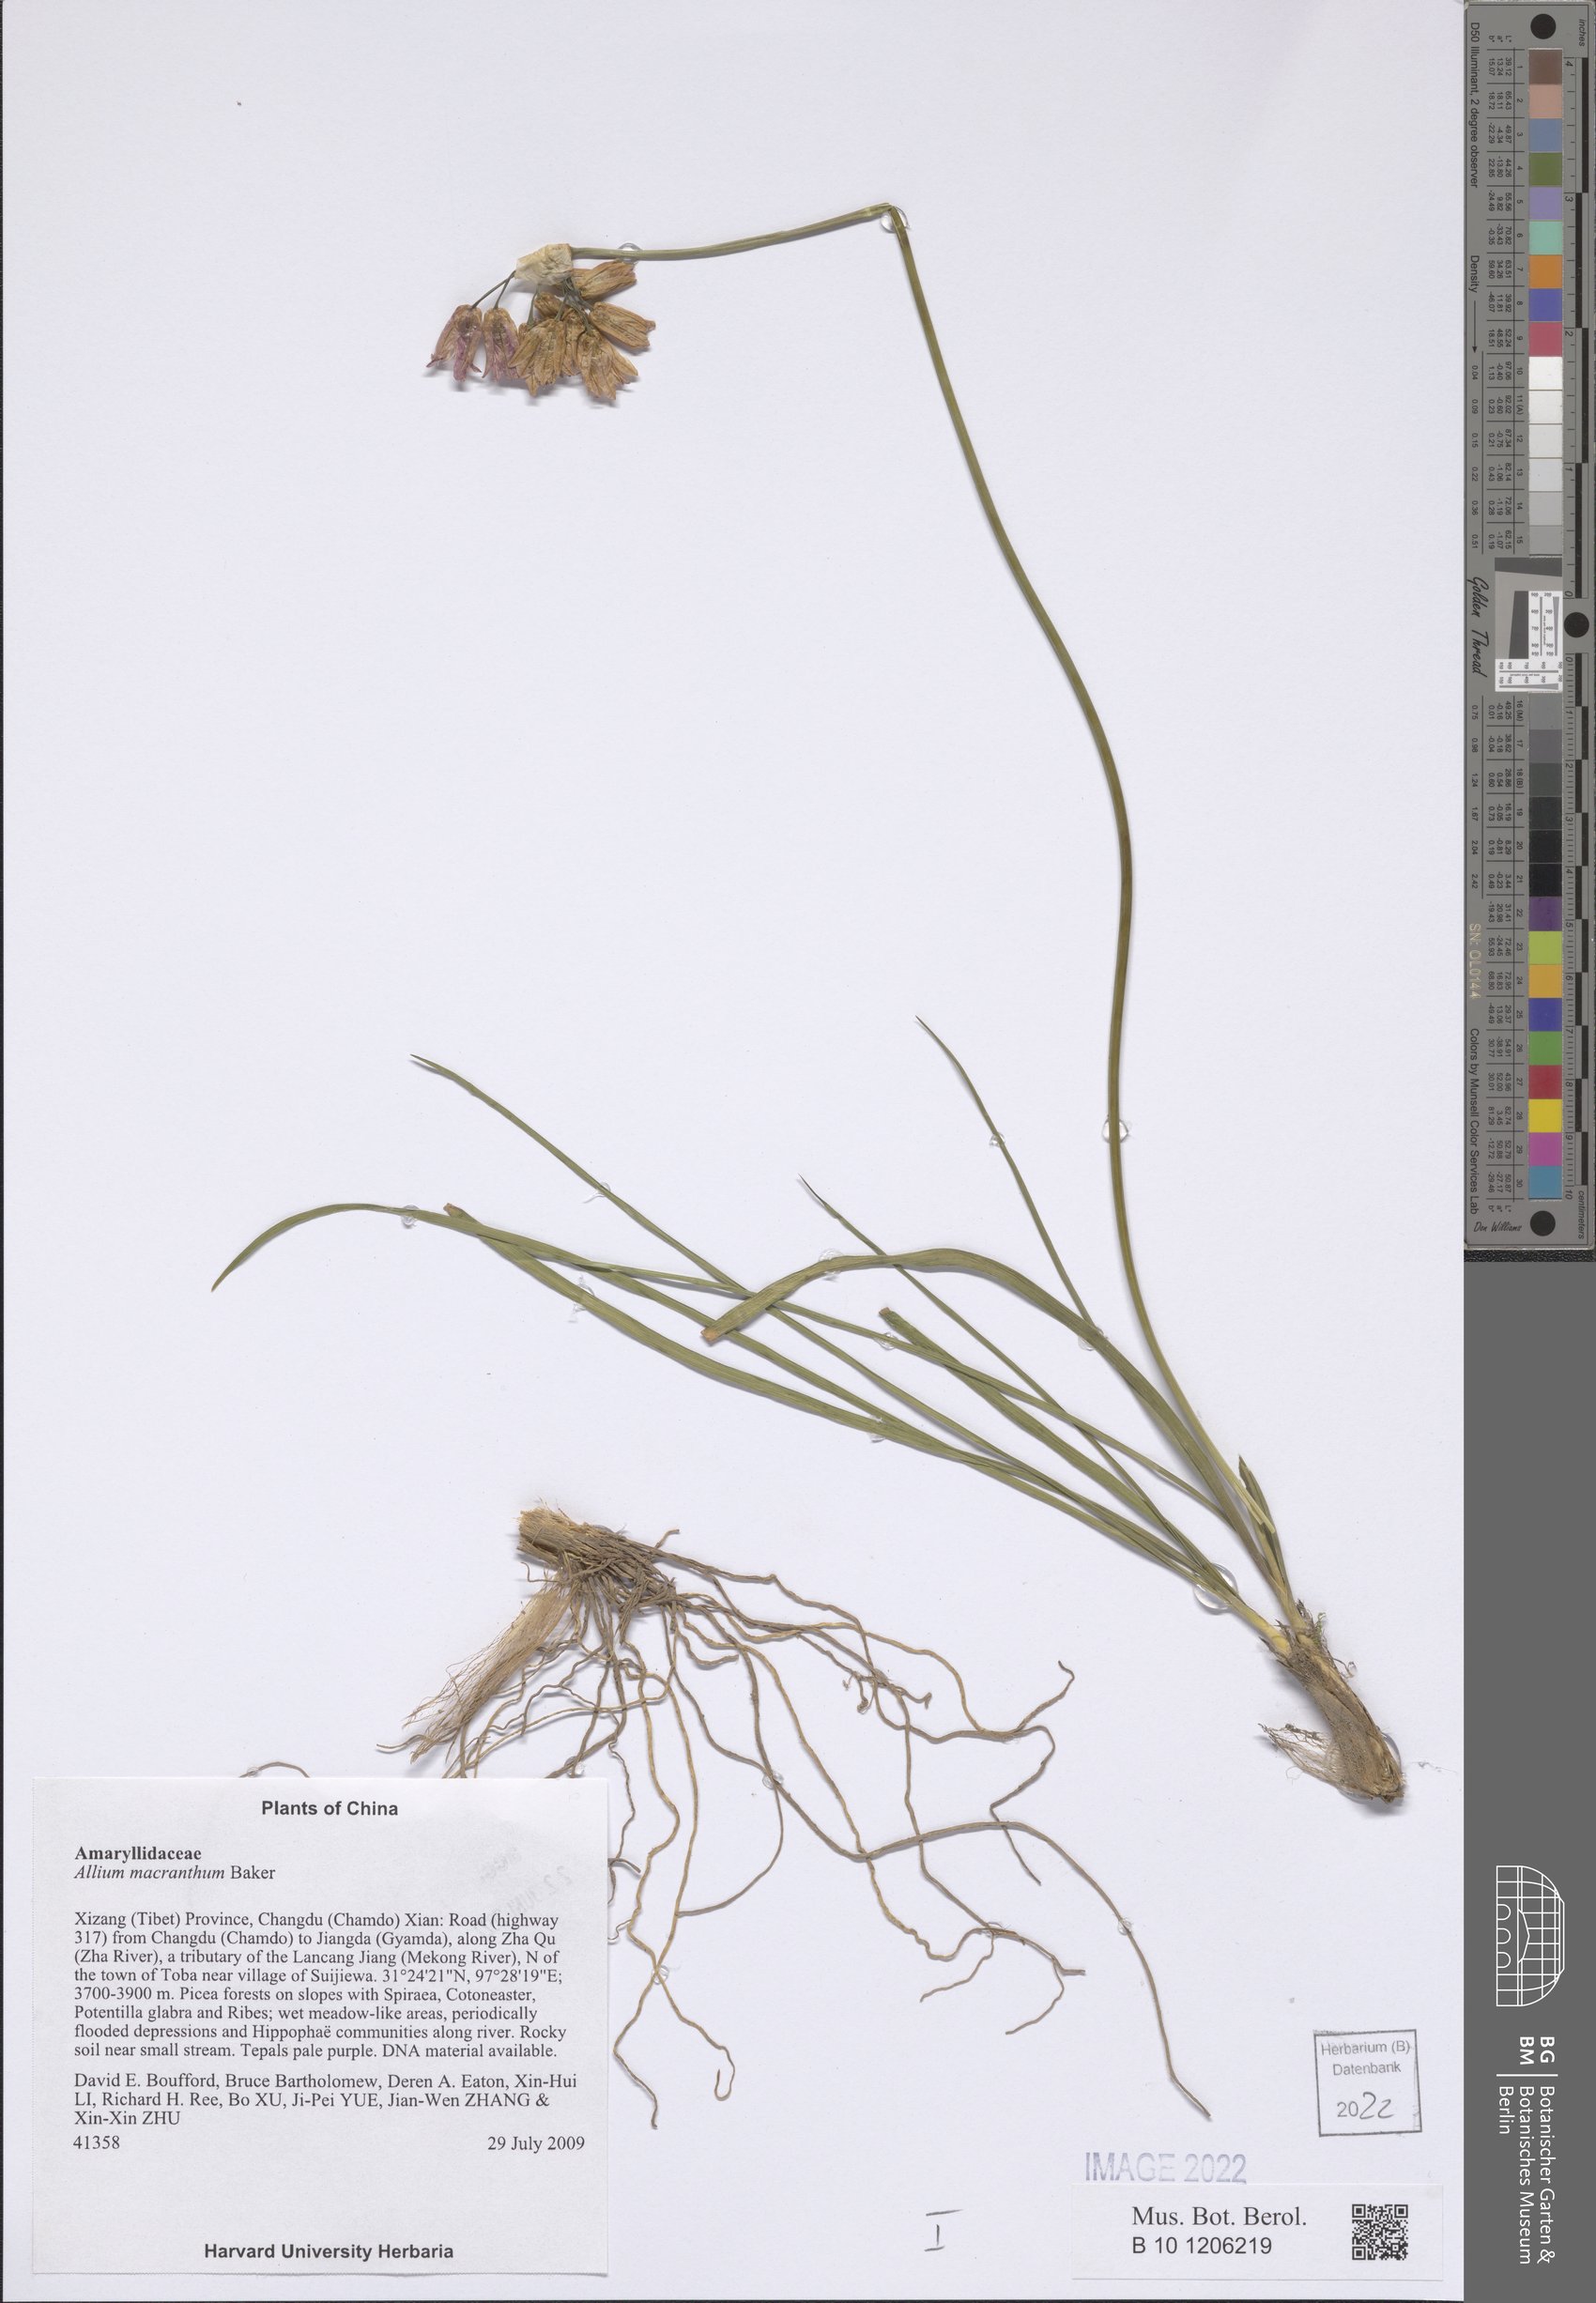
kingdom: Plantae
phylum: Tracheophyta
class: Liliopsida
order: Asparagales
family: Amaryllidaceae
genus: Allium
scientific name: Allium macranthum
